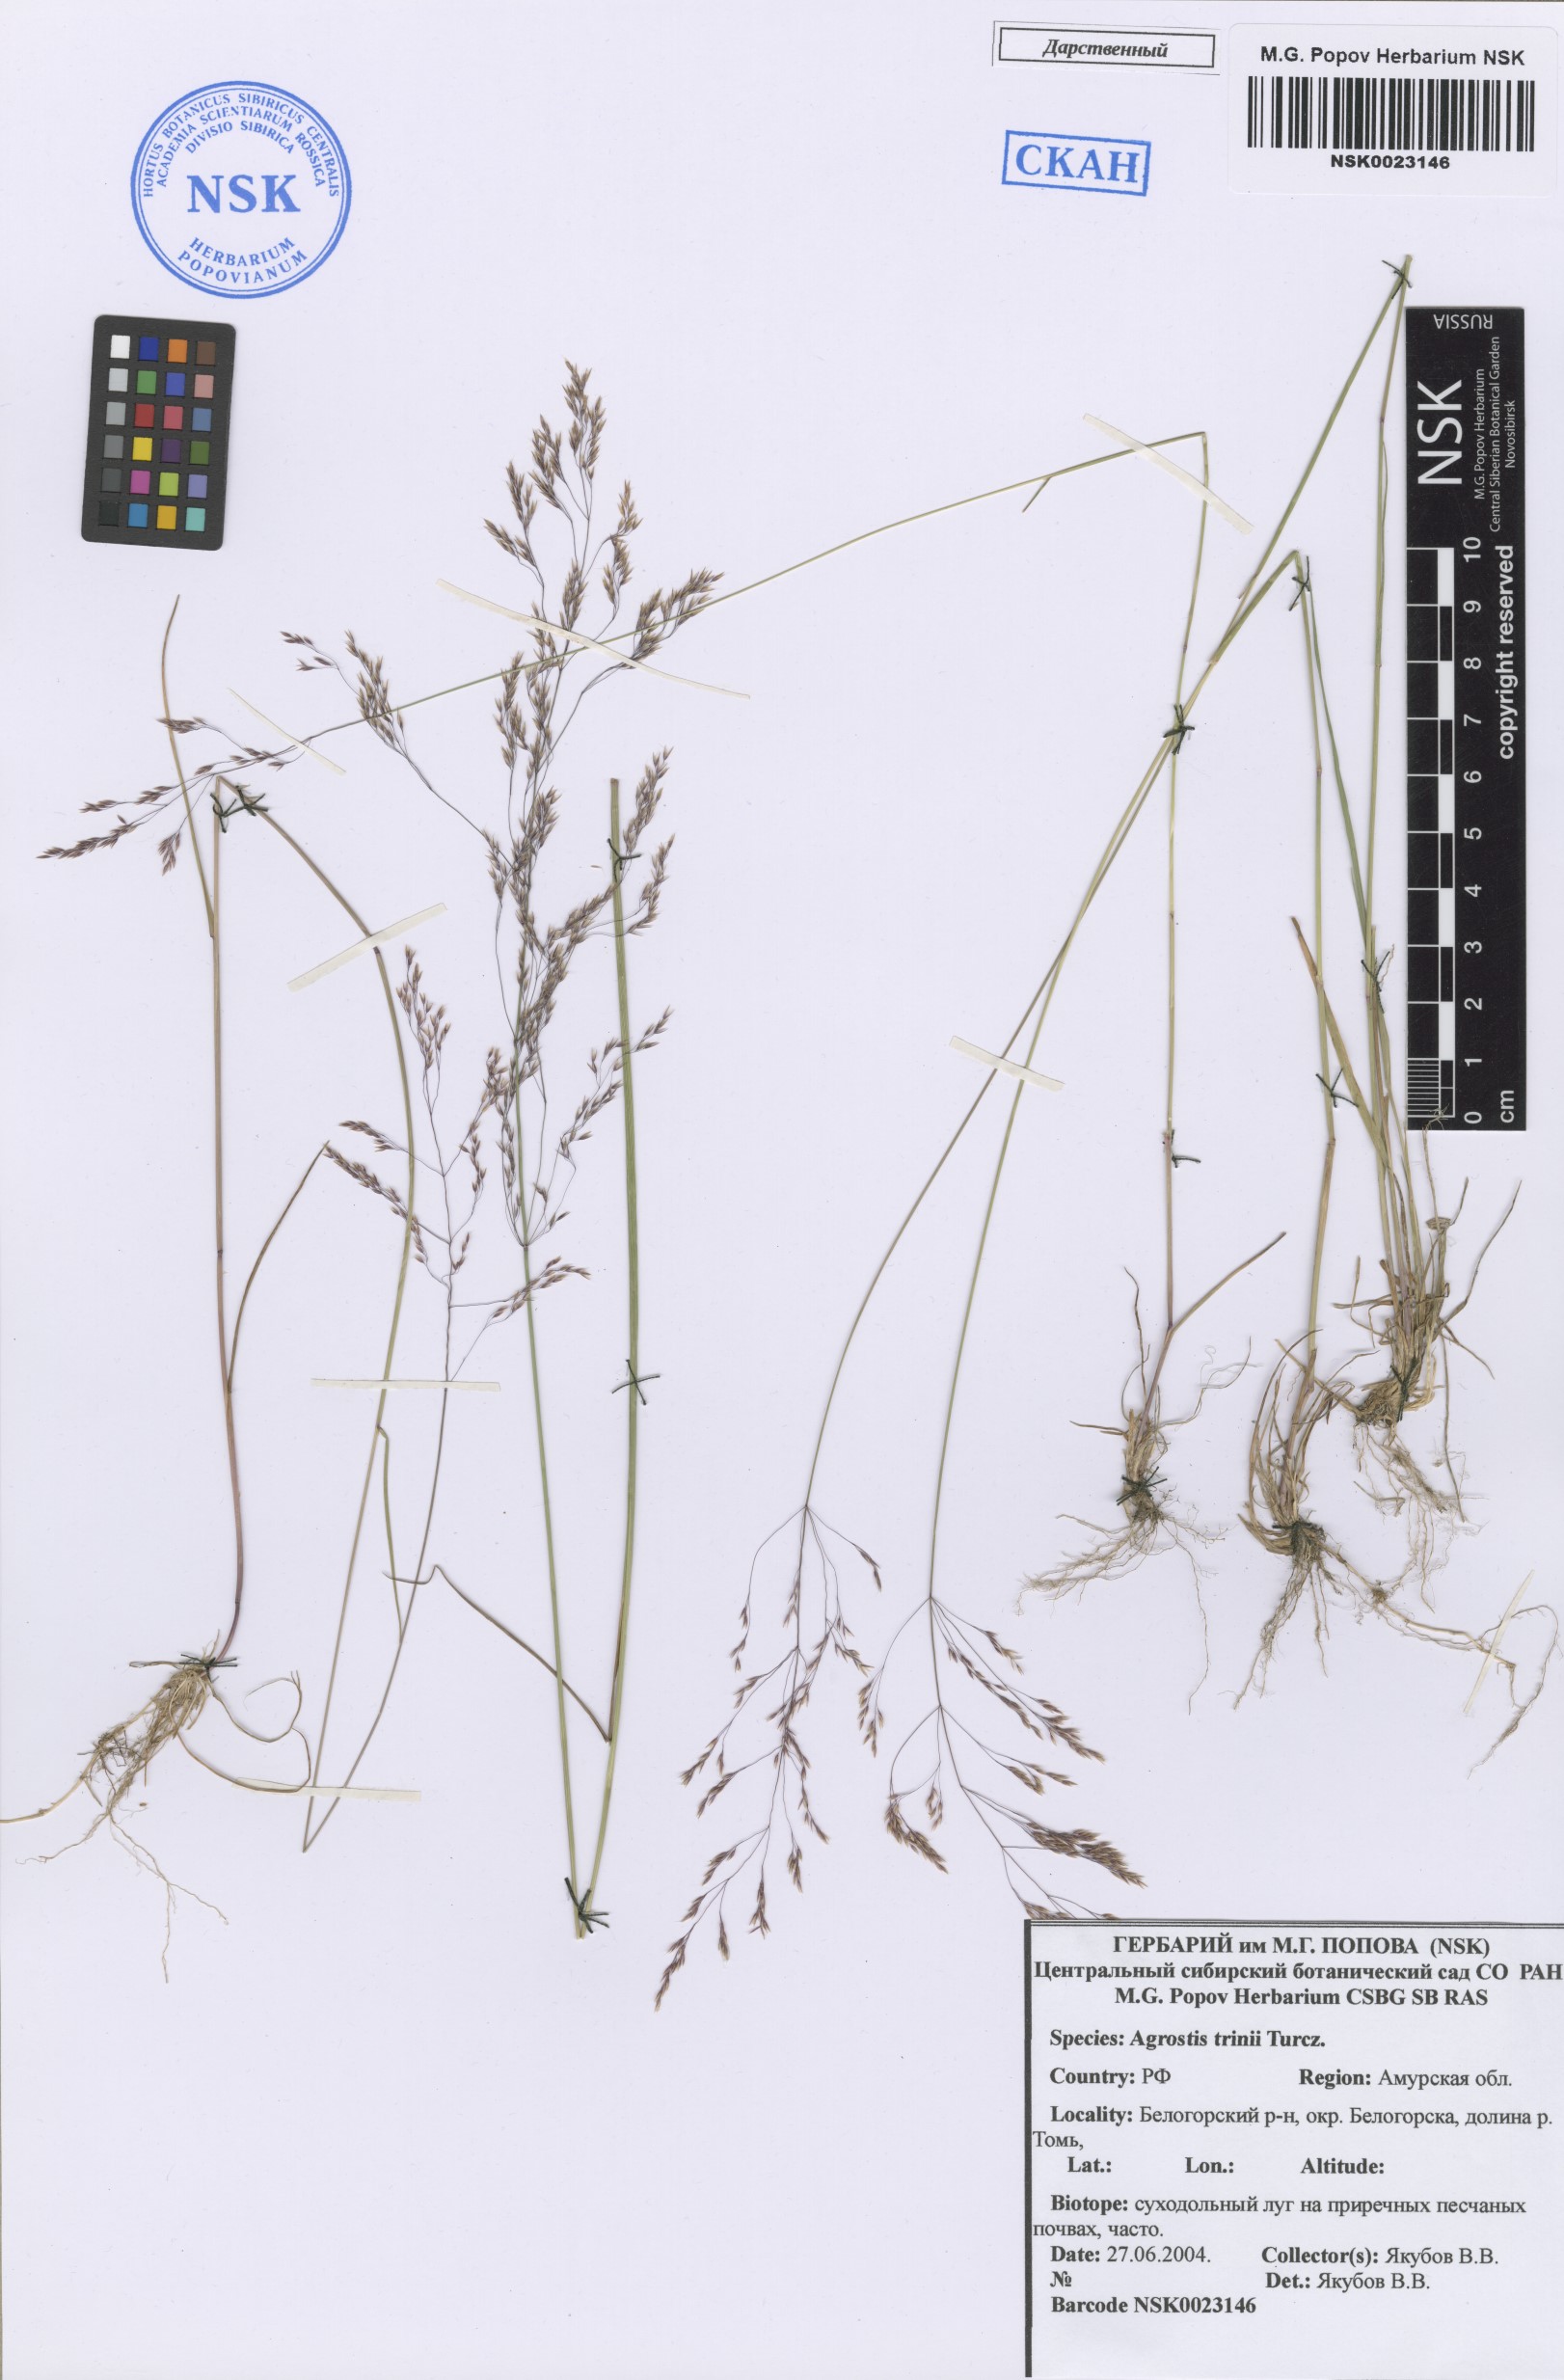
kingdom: Plantae
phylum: Tracheophyta
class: Liliopsida
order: Poales
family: Poaceae
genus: Agrostis
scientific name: Agrostis vinealis
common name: Brown bent
